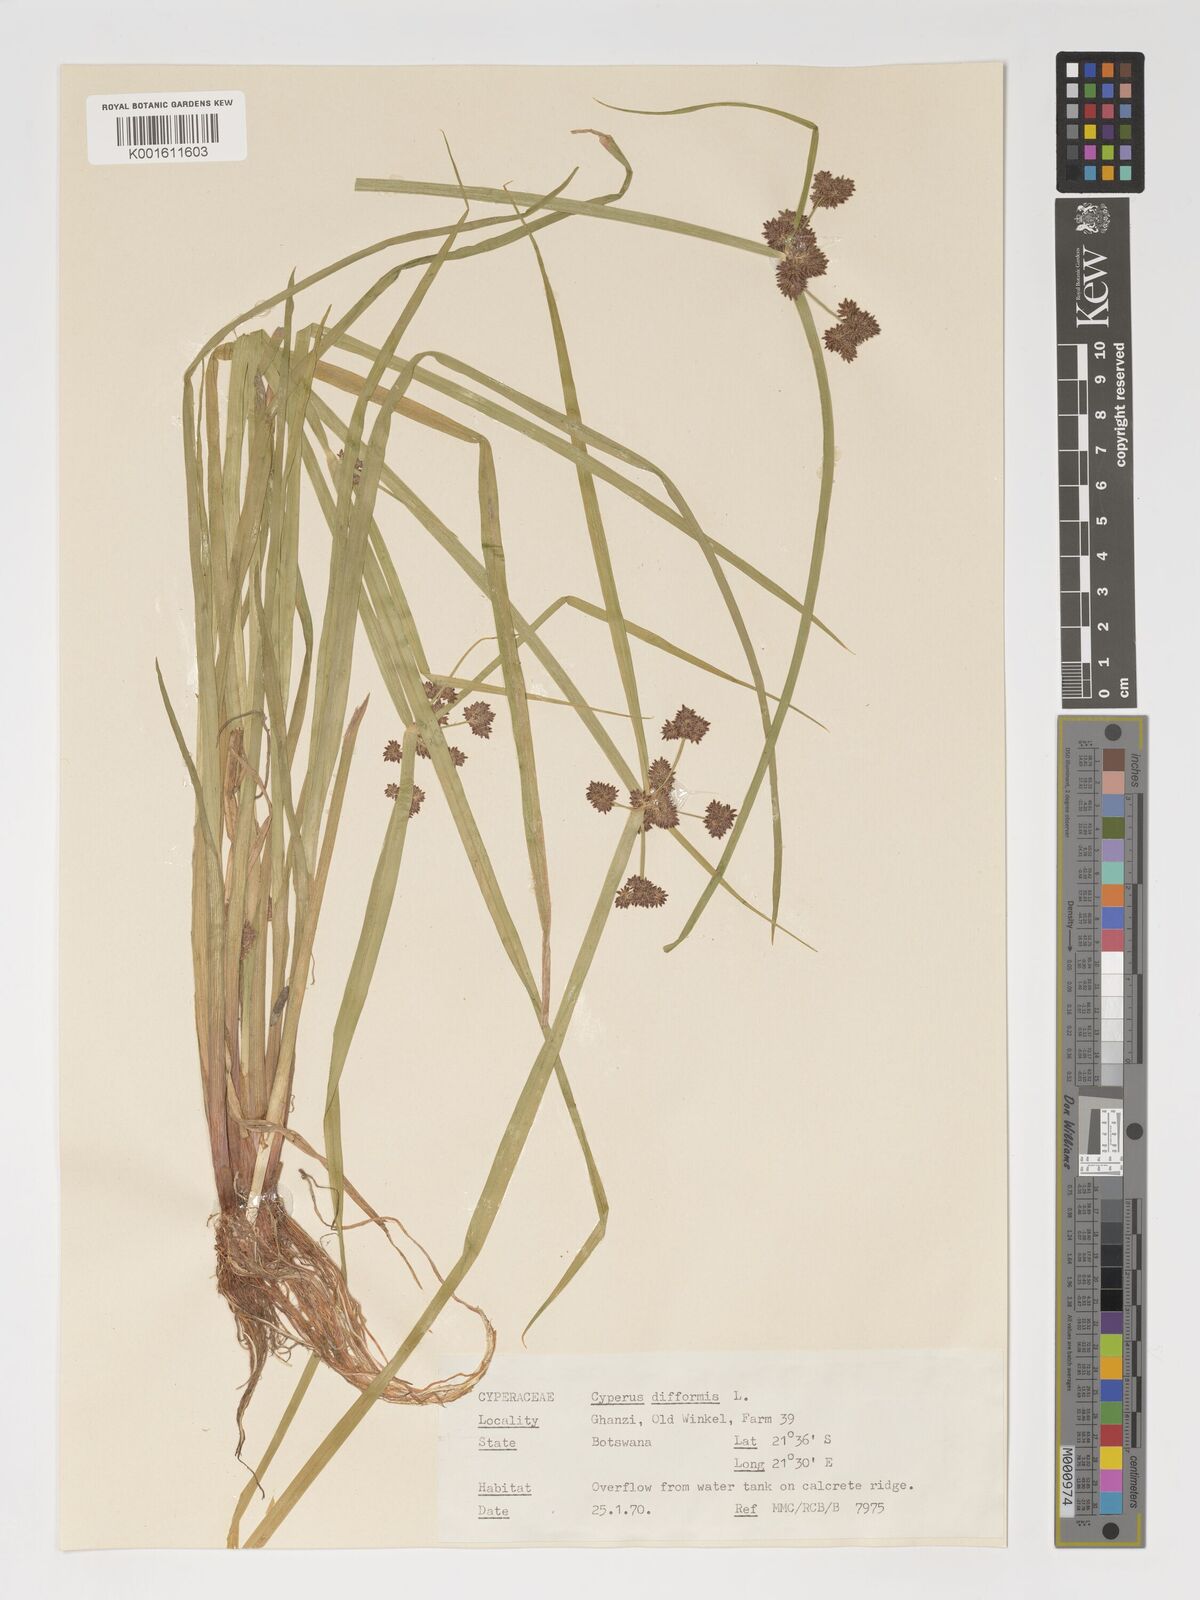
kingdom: Plantae
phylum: Tracheophyta
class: Liliopsida
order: Poales
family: Cyperaceae
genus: Cyperus
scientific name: Cyperus difformis
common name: Variable flatsedge
